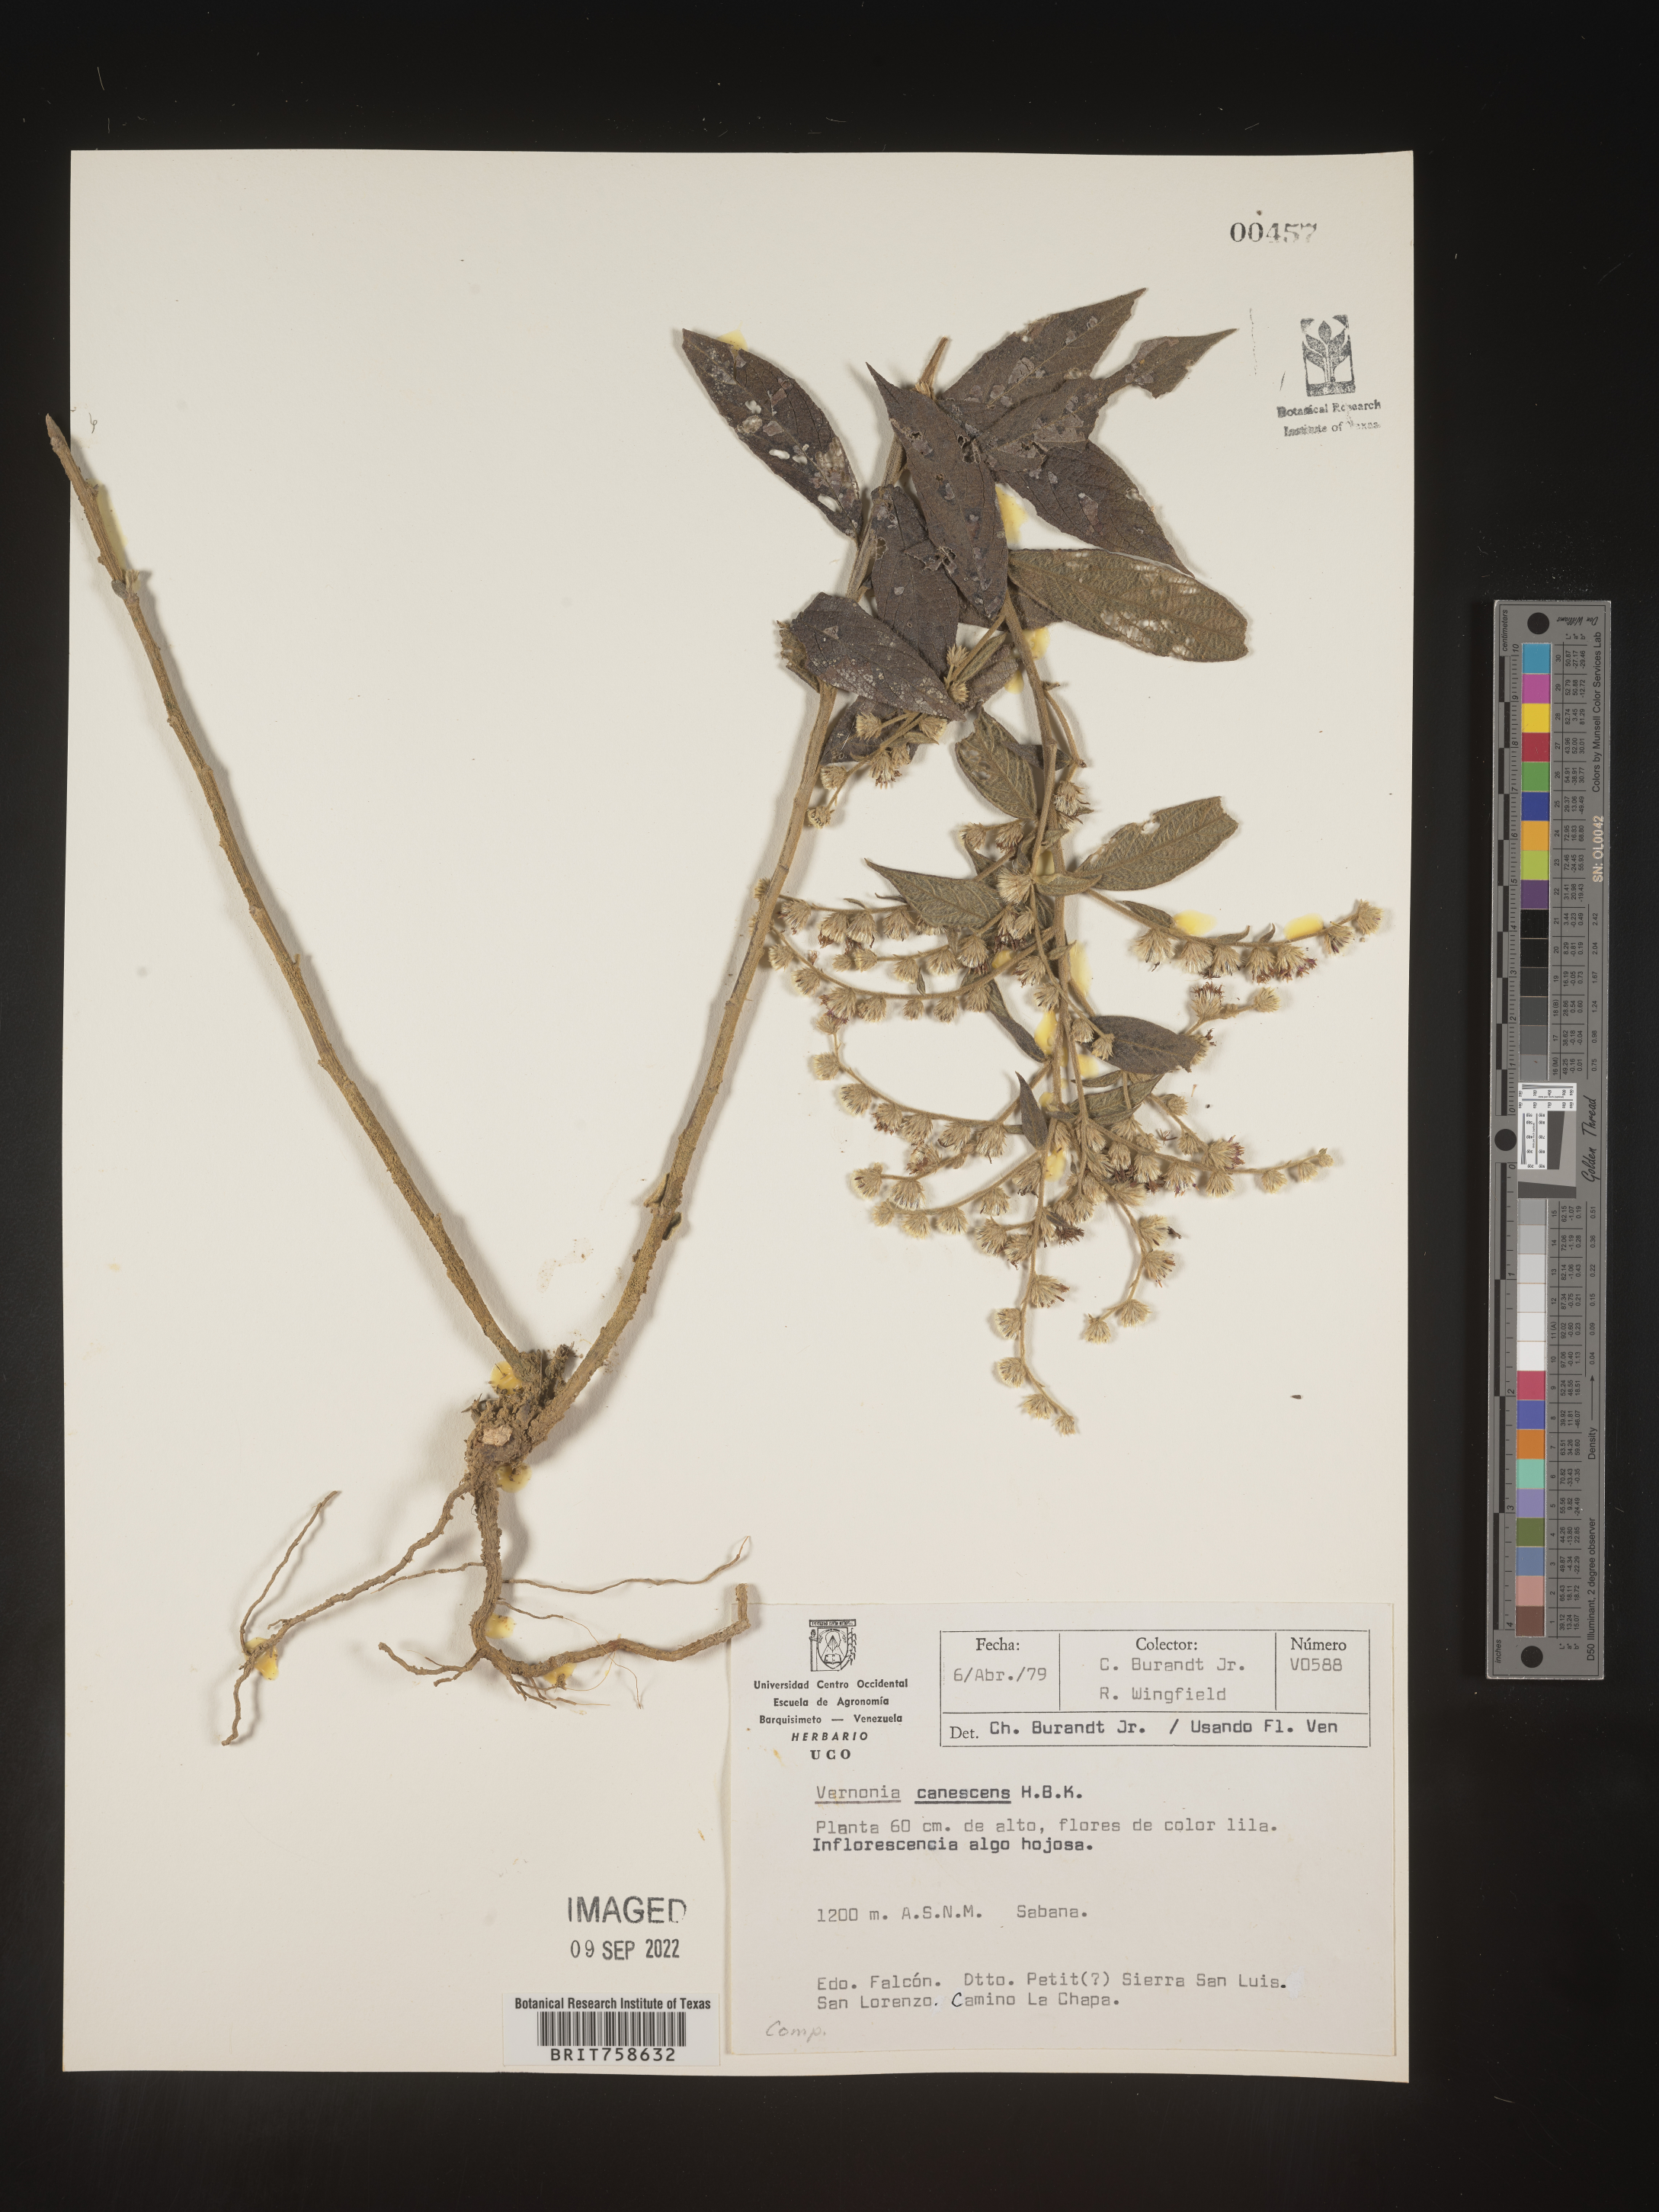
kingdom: Plantae
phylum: Tracheophyta
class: Magnoliopsida
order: Asterales
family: Asteraceae
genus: Vernonia
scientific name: Vernonia
